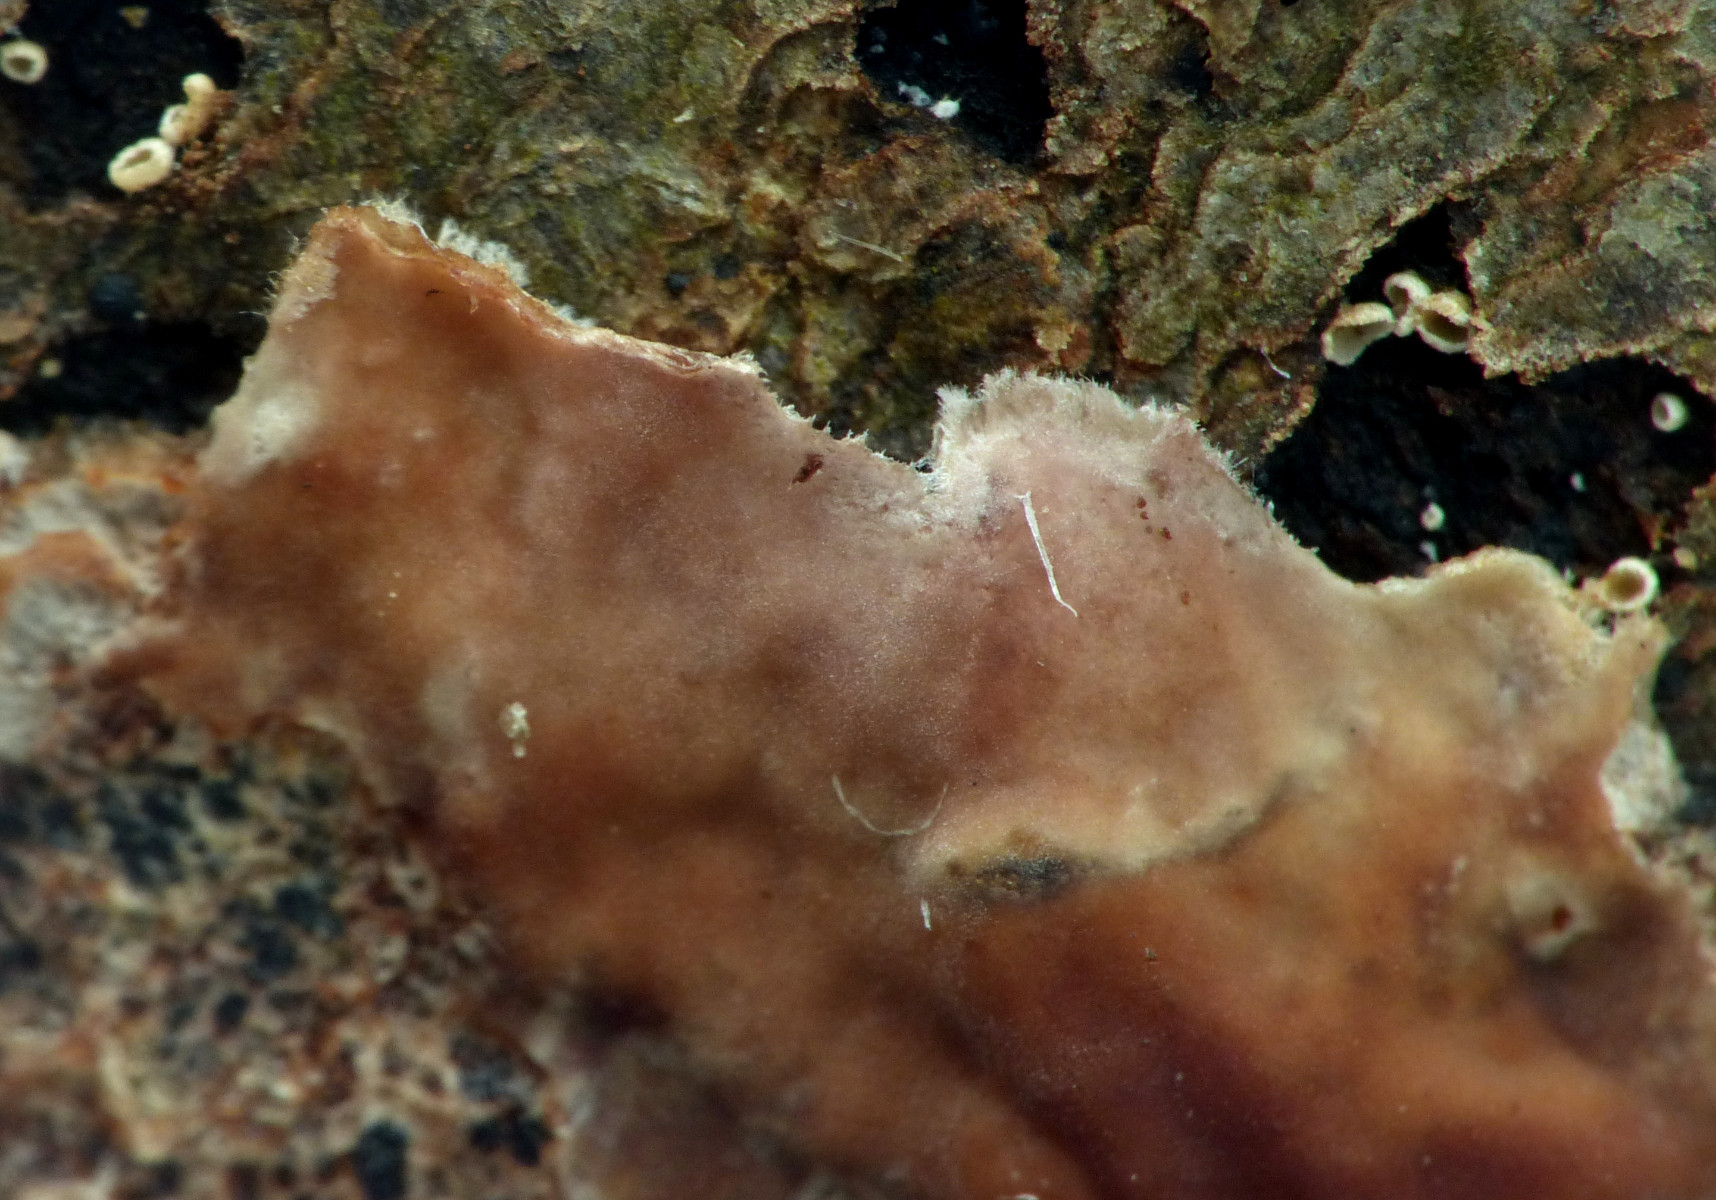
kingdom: Fungi
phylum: Basidiomycota
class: Agaricomycetes
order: Corticiales
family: Corticiaceae
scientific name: Corticiaceae
